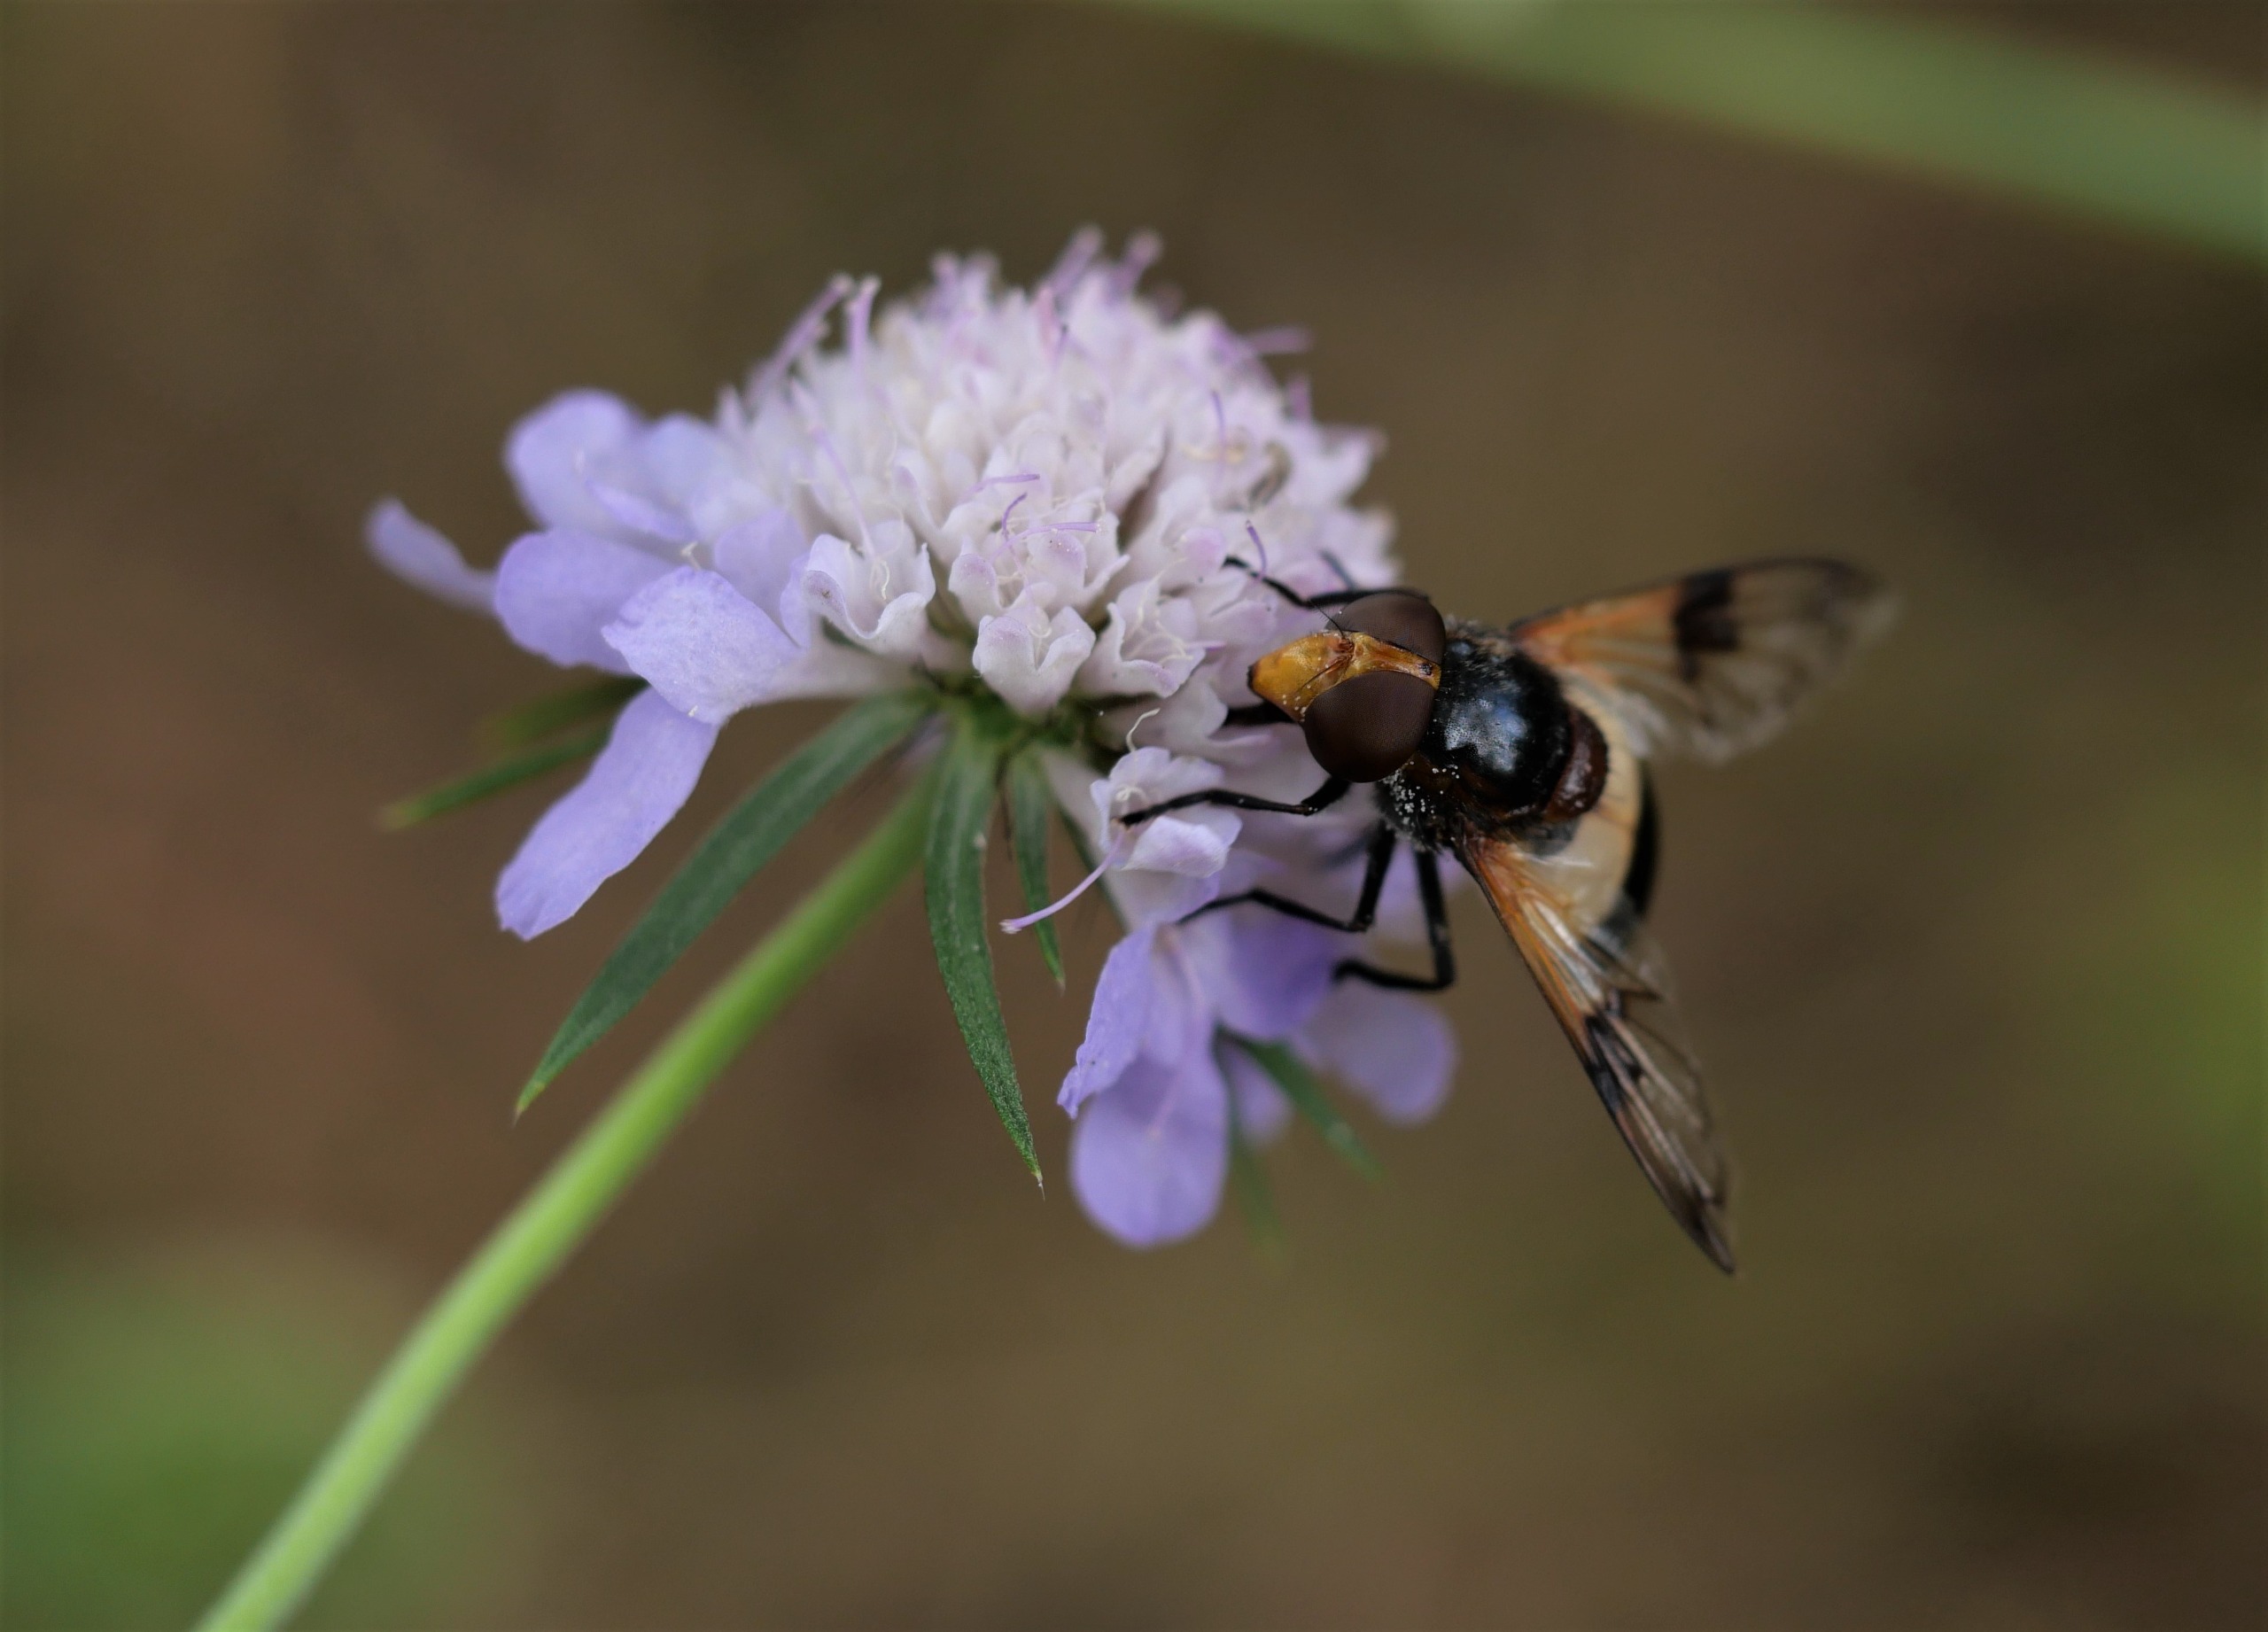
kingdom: Animalia
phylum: Arthropoda
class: Insecta
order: Diptera
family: Syrphidae
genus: Volucella
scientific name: Volucella pellucens
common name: Hvidbåndet humlesvirreflue
